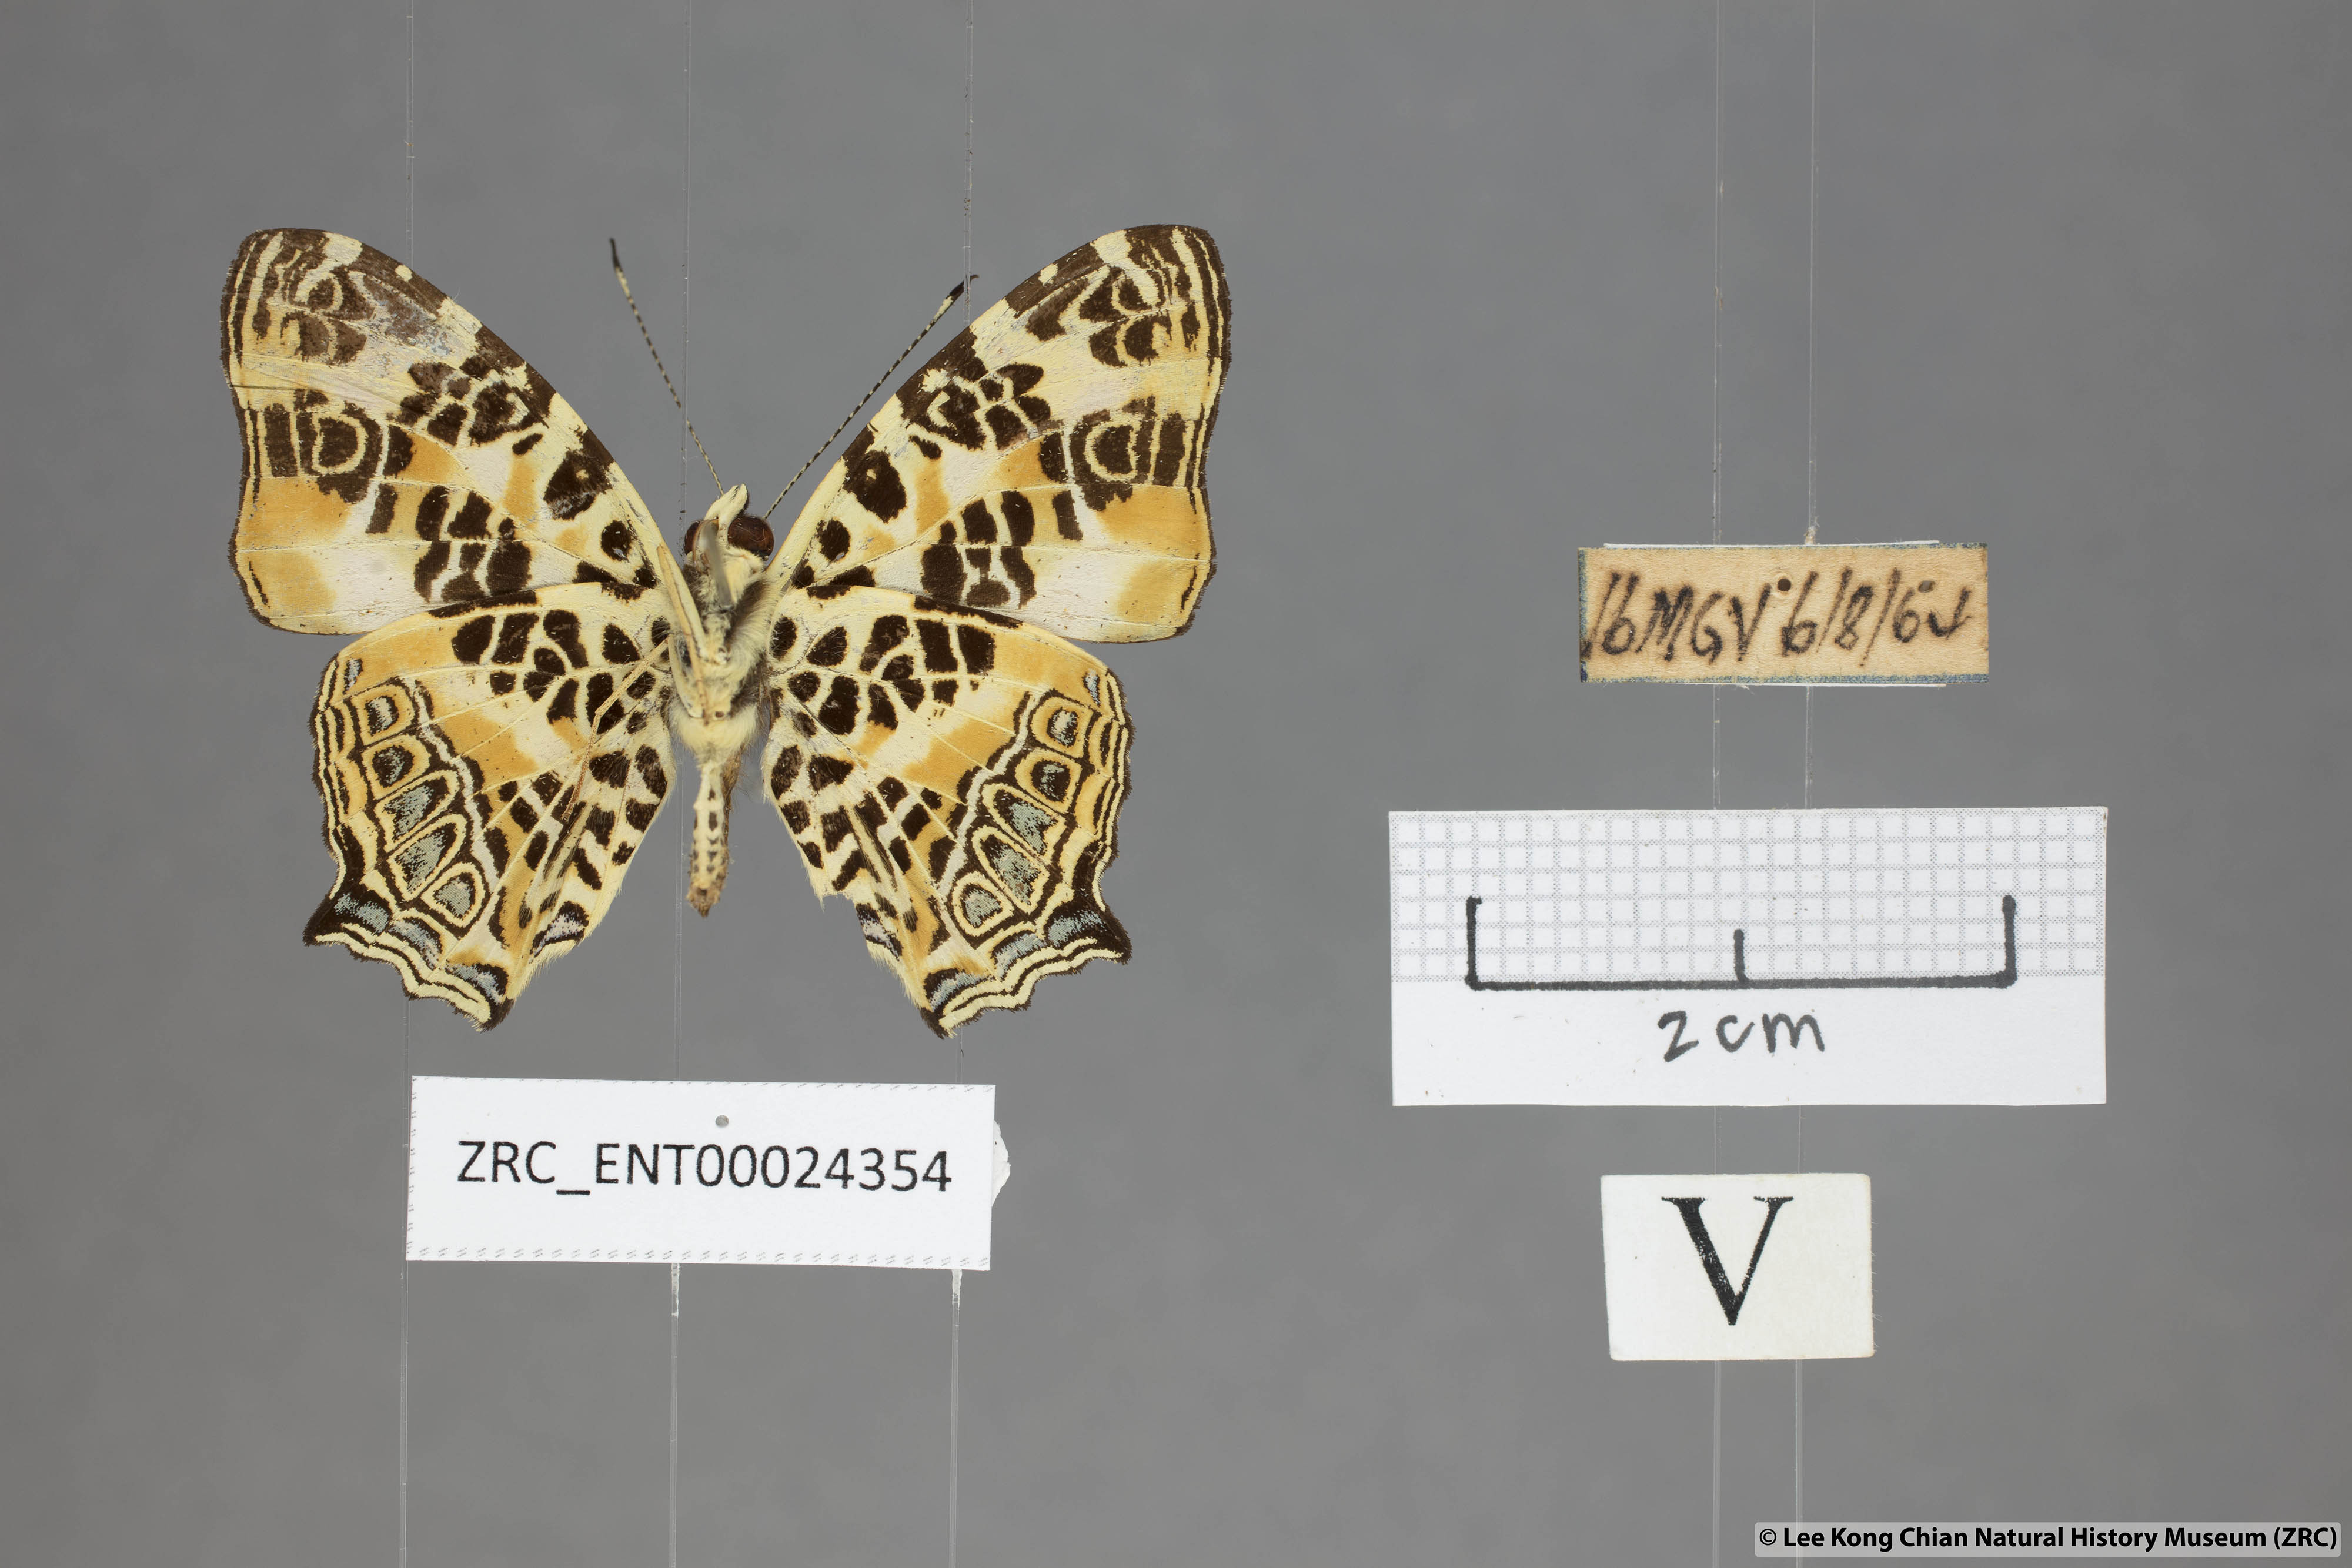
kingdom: Animalia
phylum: Arthropoda
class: Insecta
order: Lepidoptera
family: Nymphalidae
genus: Symbrenthia
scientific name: Symbrenthia hypselis
